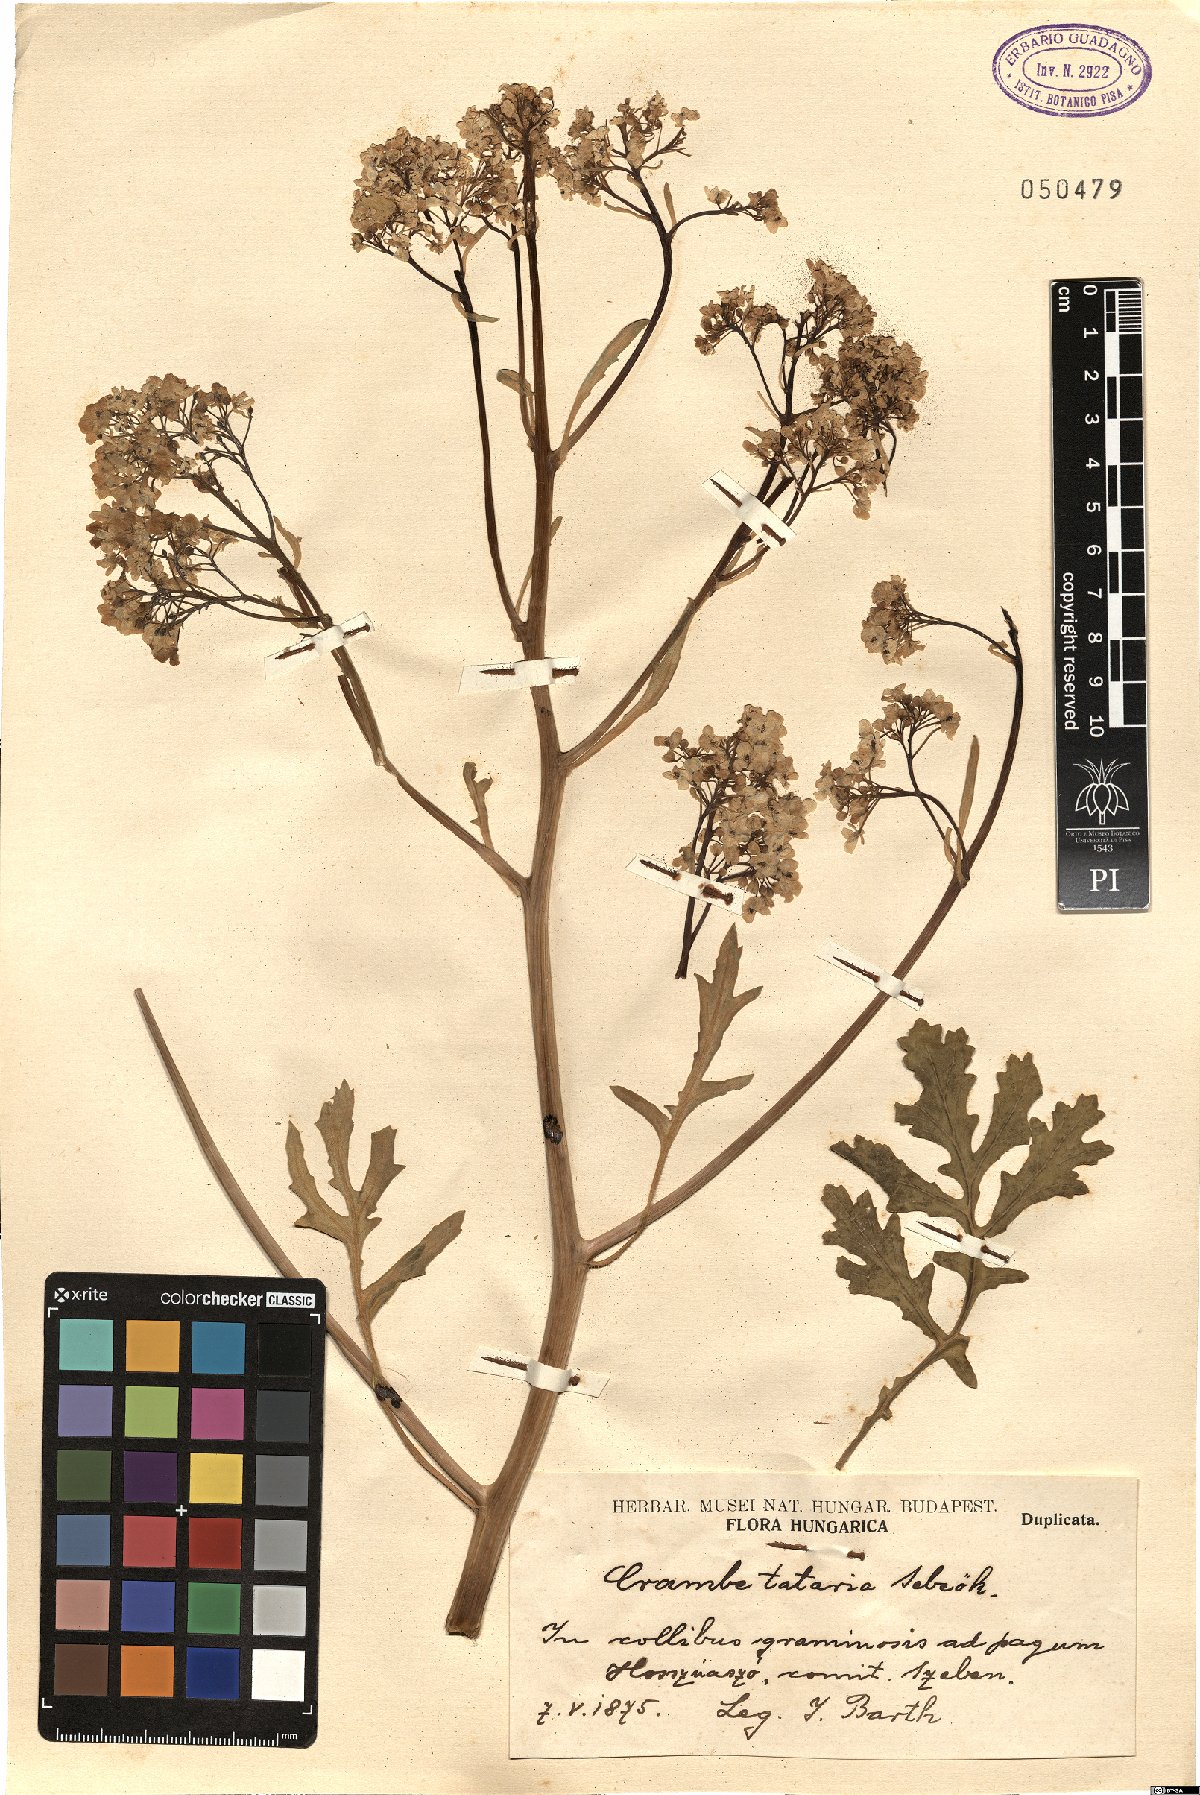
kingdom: Plantae
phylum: Tracheophyta
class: Magnoliopsida
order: Brassicales
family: Brassicaceae
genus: Crambe
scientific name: Crambe tataria
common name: Tartarian breadplant
